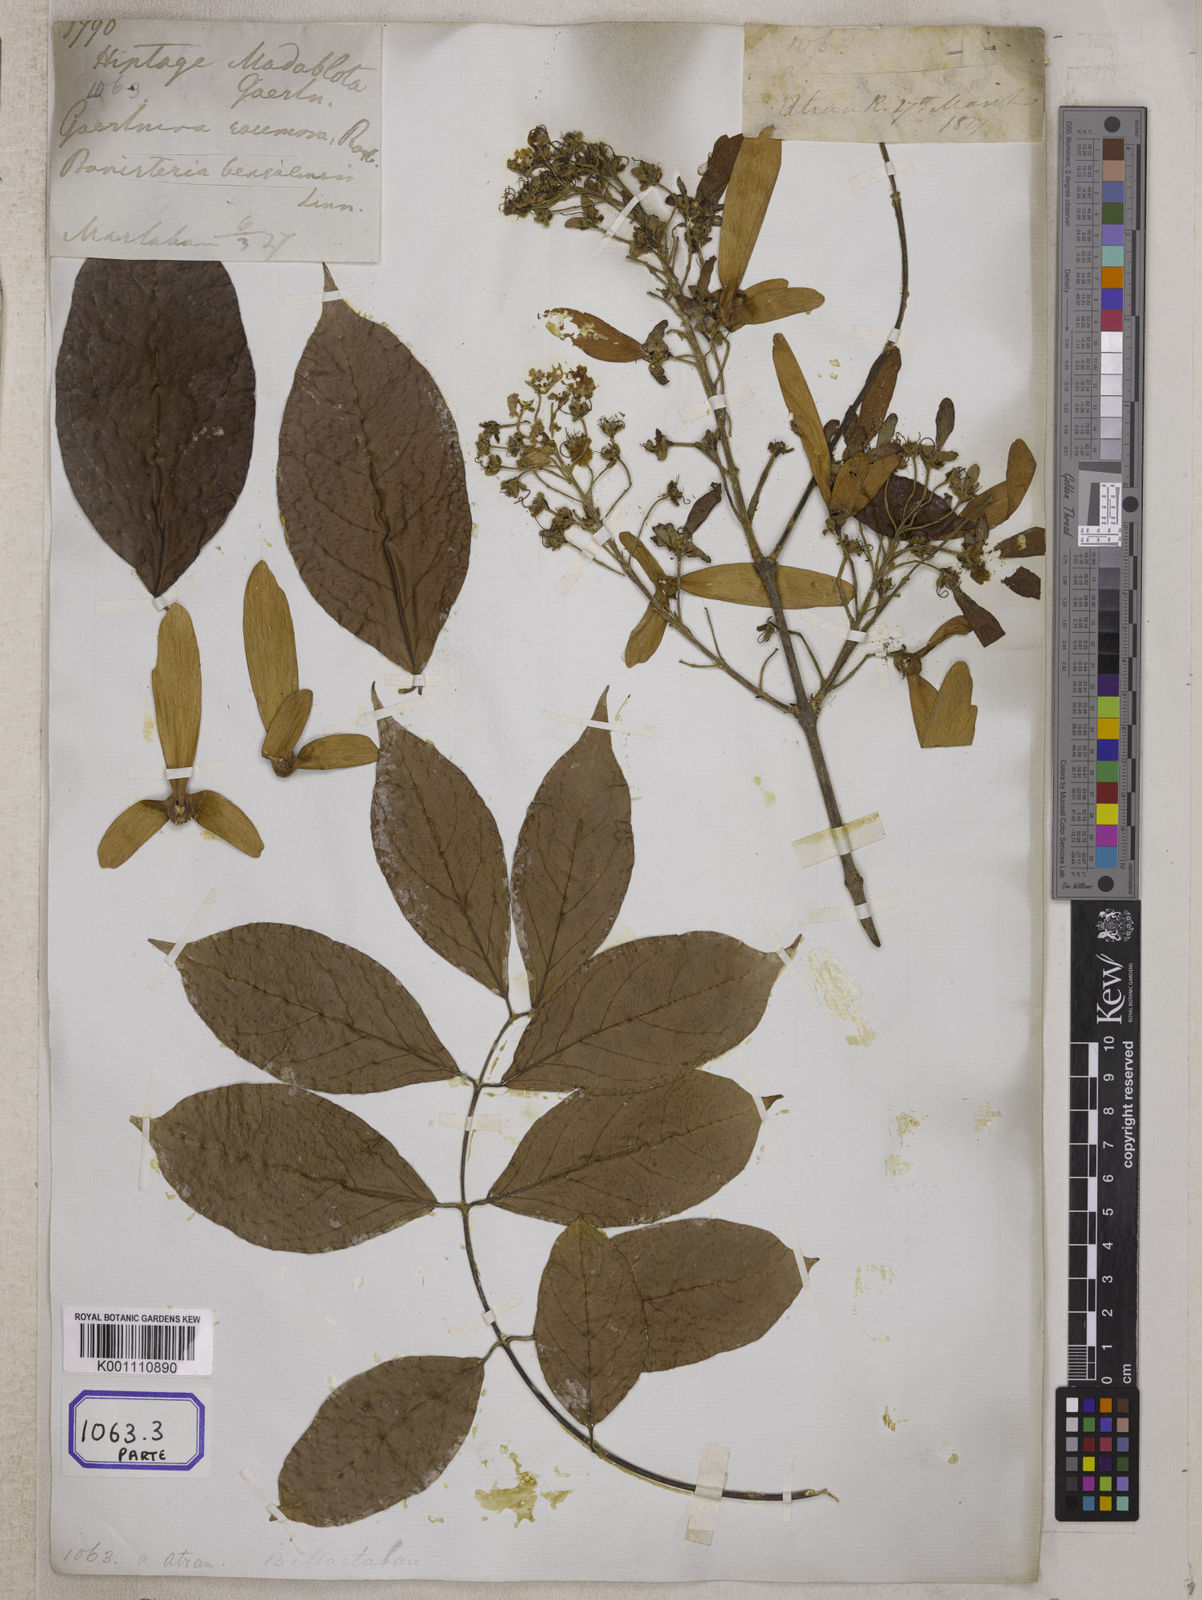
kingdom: Plantae
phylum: Tracheophyta
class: Magnoliopsida
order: Malpighiales
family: Malpighiaceae
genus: Hiptage
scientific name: Hiptage benghalensis
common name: Hiptage
